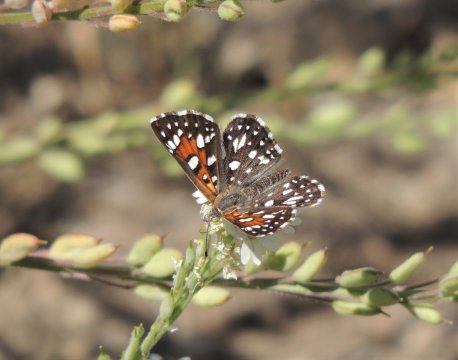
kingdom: Animalia
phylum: Arthropoda
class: Insecta
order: Lepidoptera
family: Riodinidae
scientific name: Riodinidae
